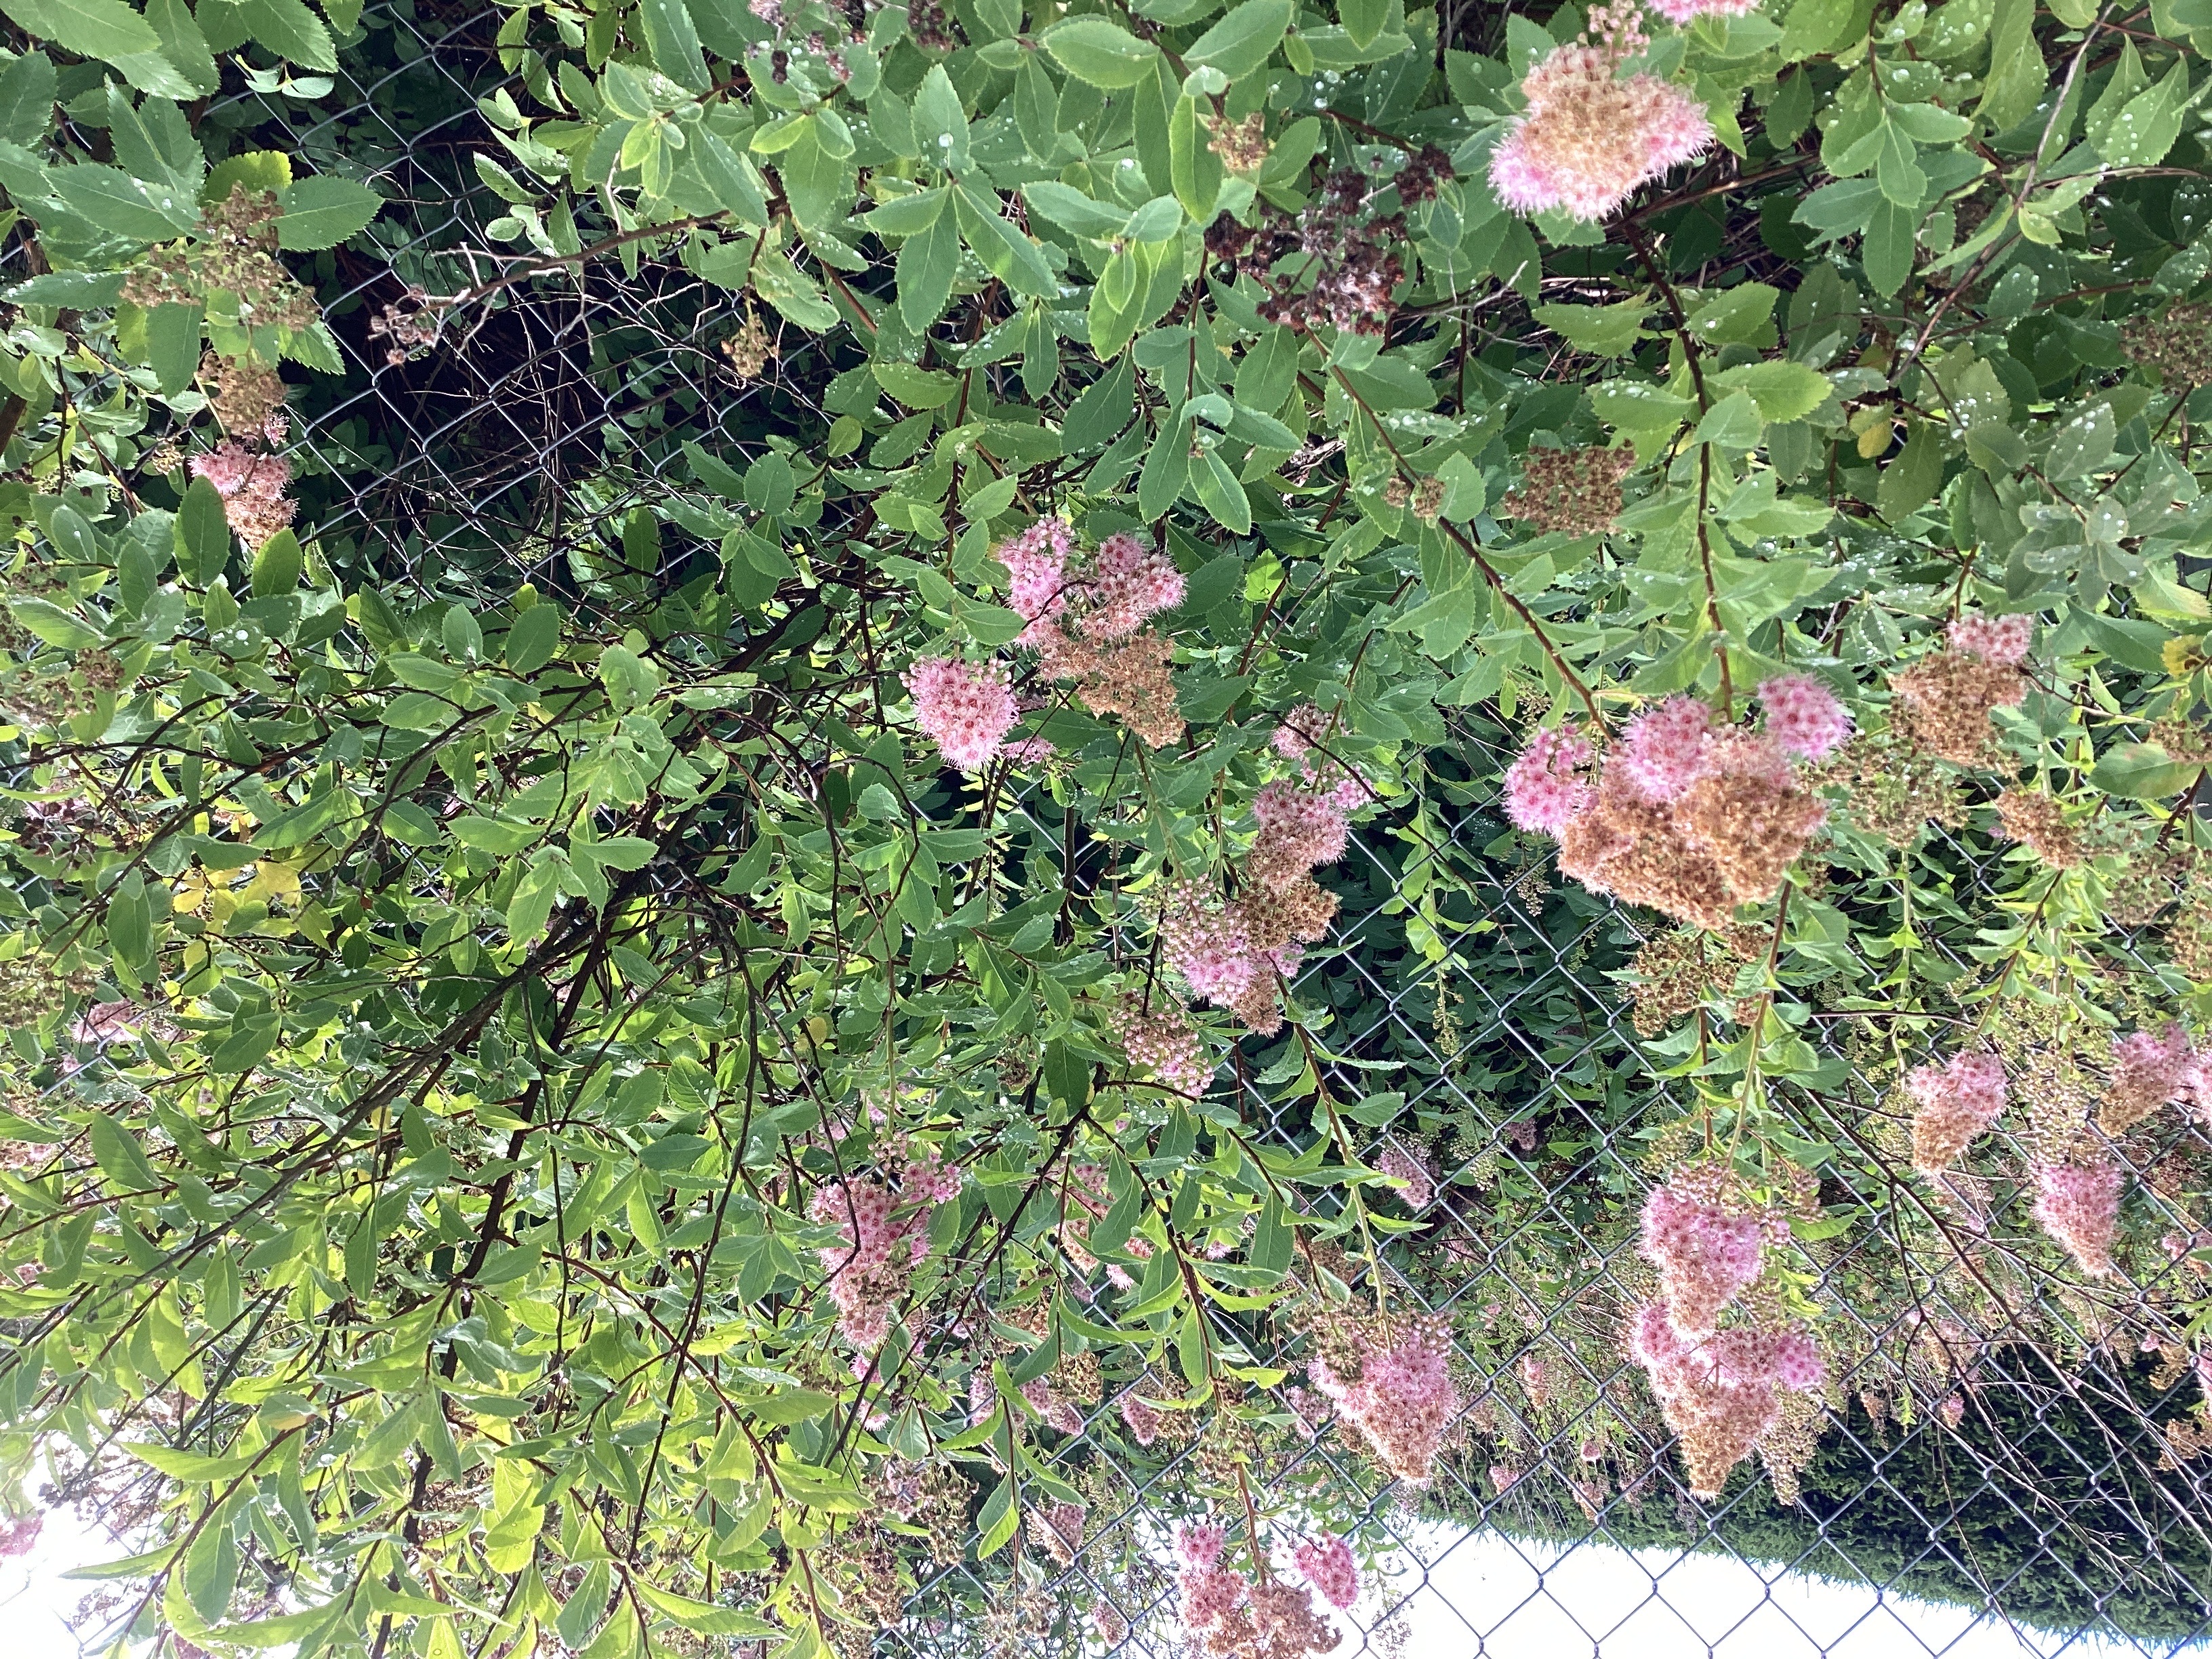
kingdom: Plantae
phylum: Tracheophyta
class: Magnoliopsida
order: Rosales
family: Rosaceae
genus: Spiraea
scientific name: Spiraea billardii
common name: klasespirea
